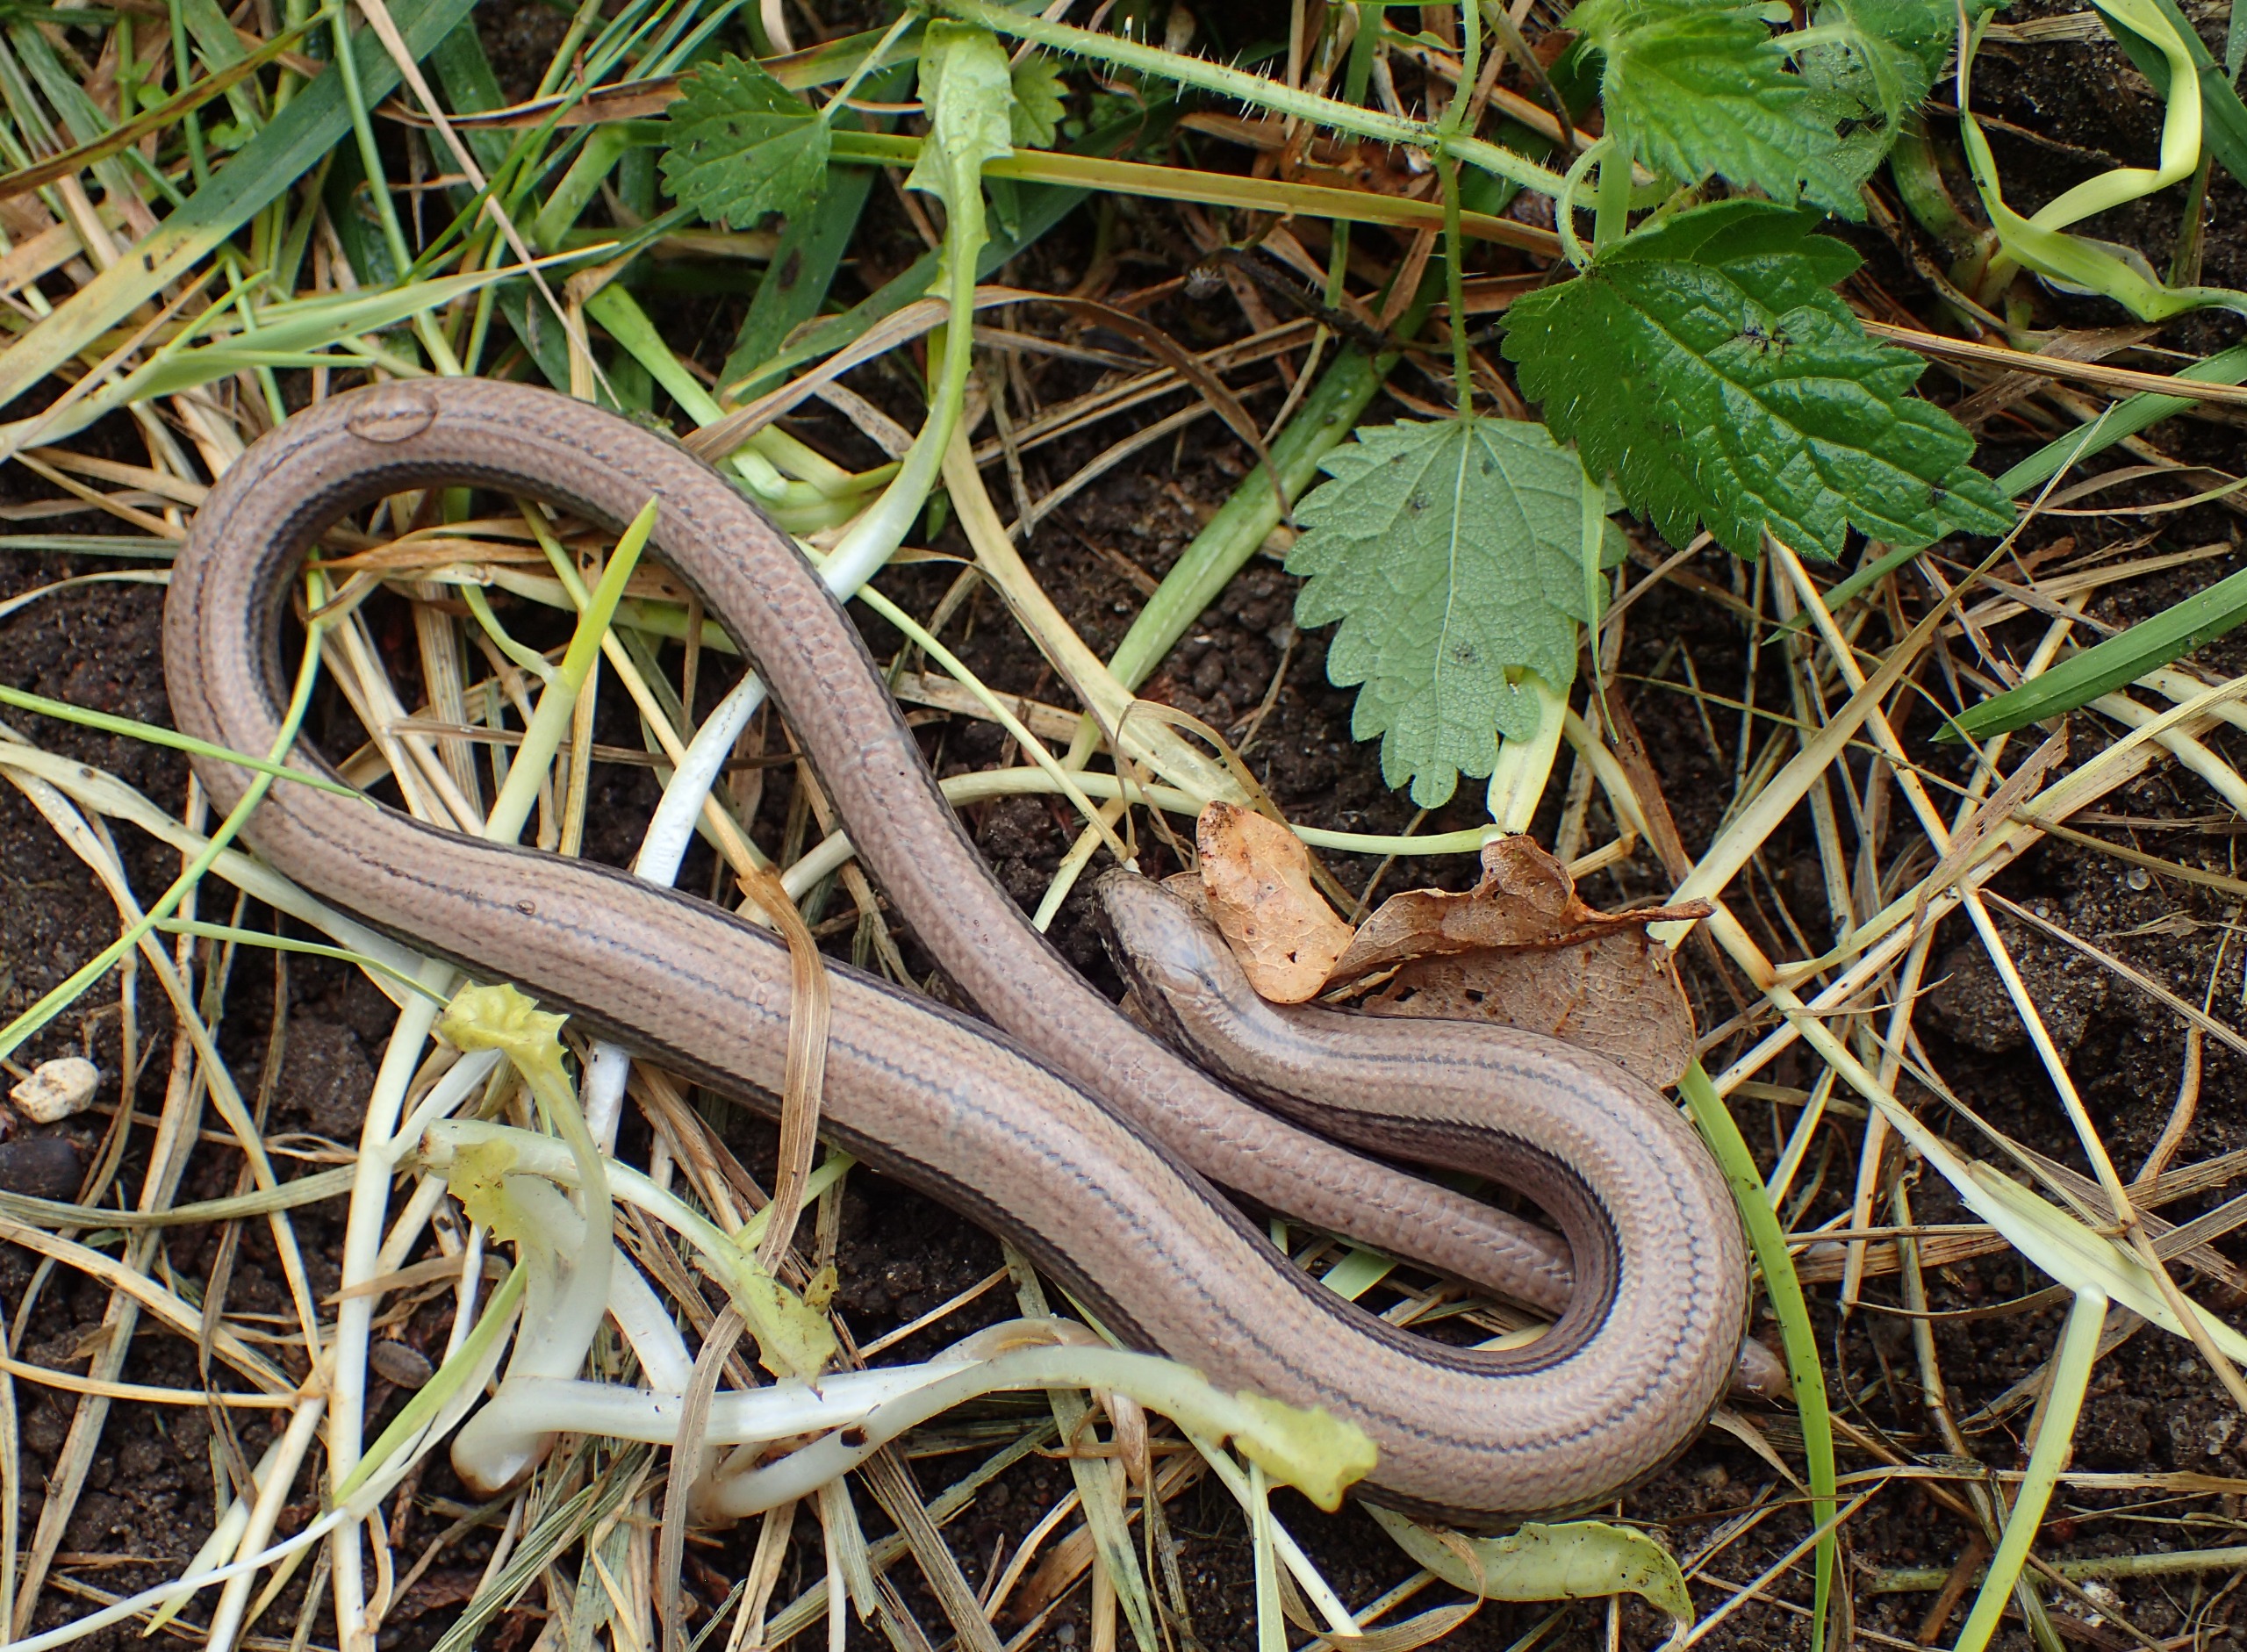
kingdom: Animalia
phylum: Chordata
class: Squamata
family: Anguidae
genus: Anguis
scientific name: Anguis fragilis
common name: Stålorm
